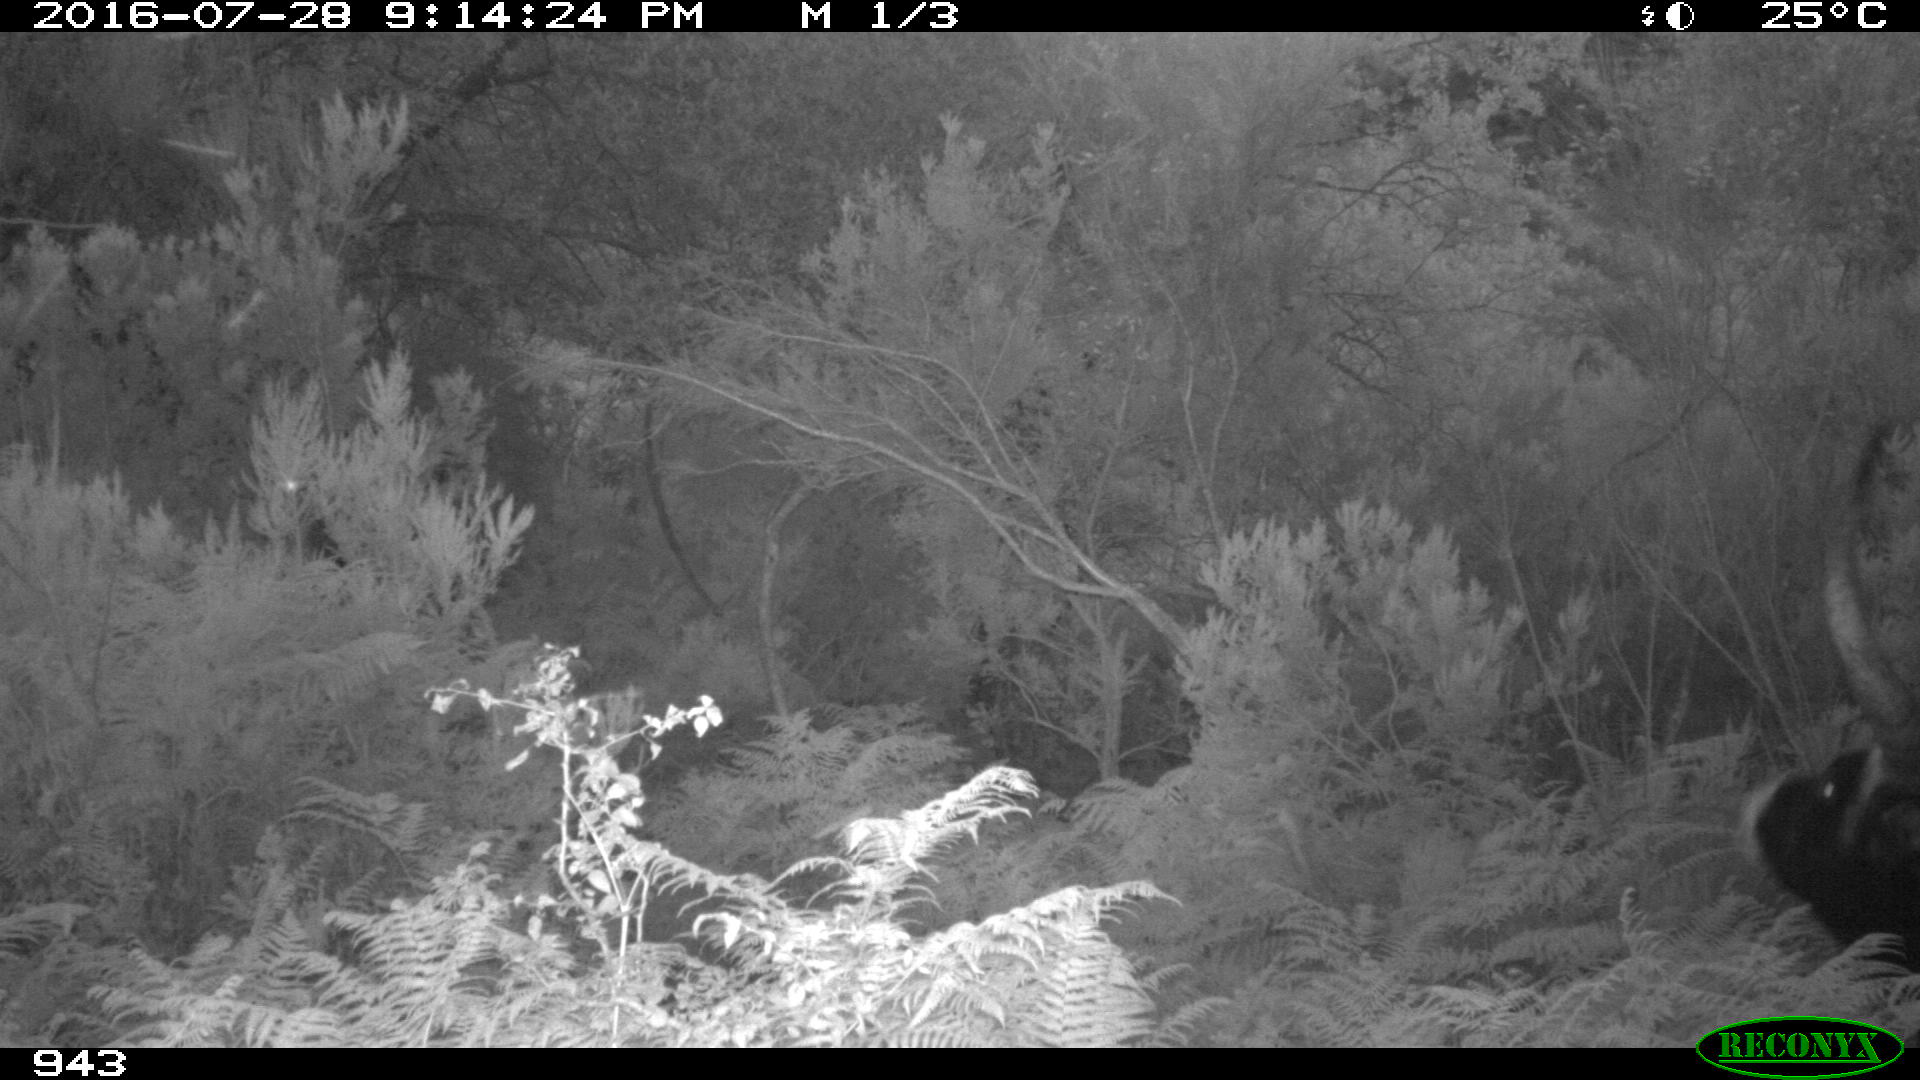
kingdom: Animalia
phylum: Chordata
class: Mammalia
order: Artiodactyla
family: Bovidae
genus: Bos
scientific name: Bos taurus
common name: Domesticated cattle
